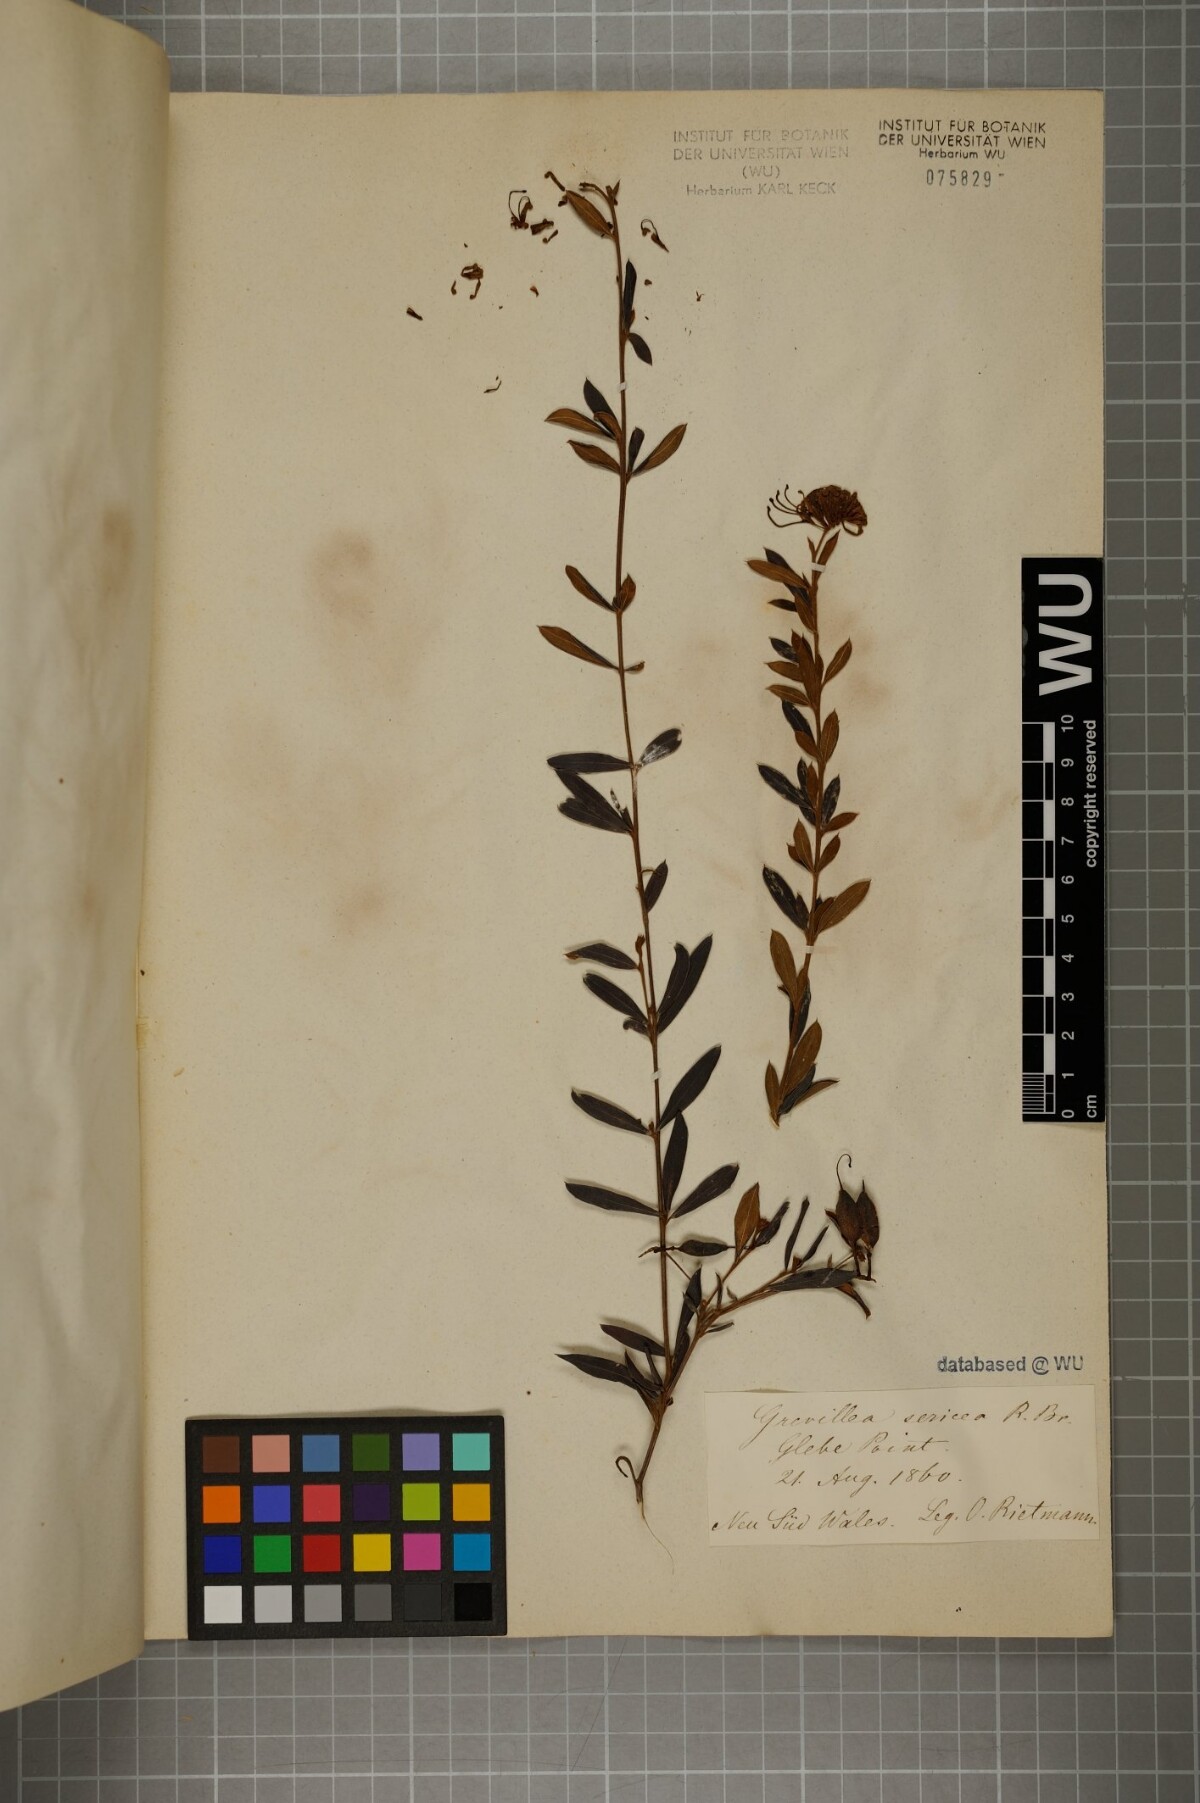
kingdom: Plantae
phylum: Tracheophyta
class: Magnoliopsida
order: Proteales
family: Proteaceae
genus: Grevillea
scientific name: Grevillea sericea
